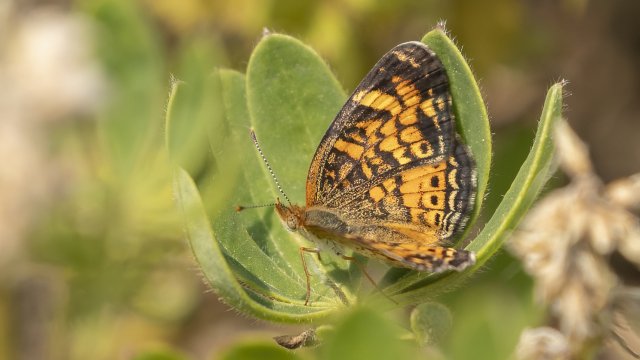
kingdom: Animalia
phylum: Arthropoda
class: Insecta
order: Lepidoptera
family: Nymphalidae
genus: Phyciodes
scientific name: Phyciodes tharos
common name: Pearl Crescent
